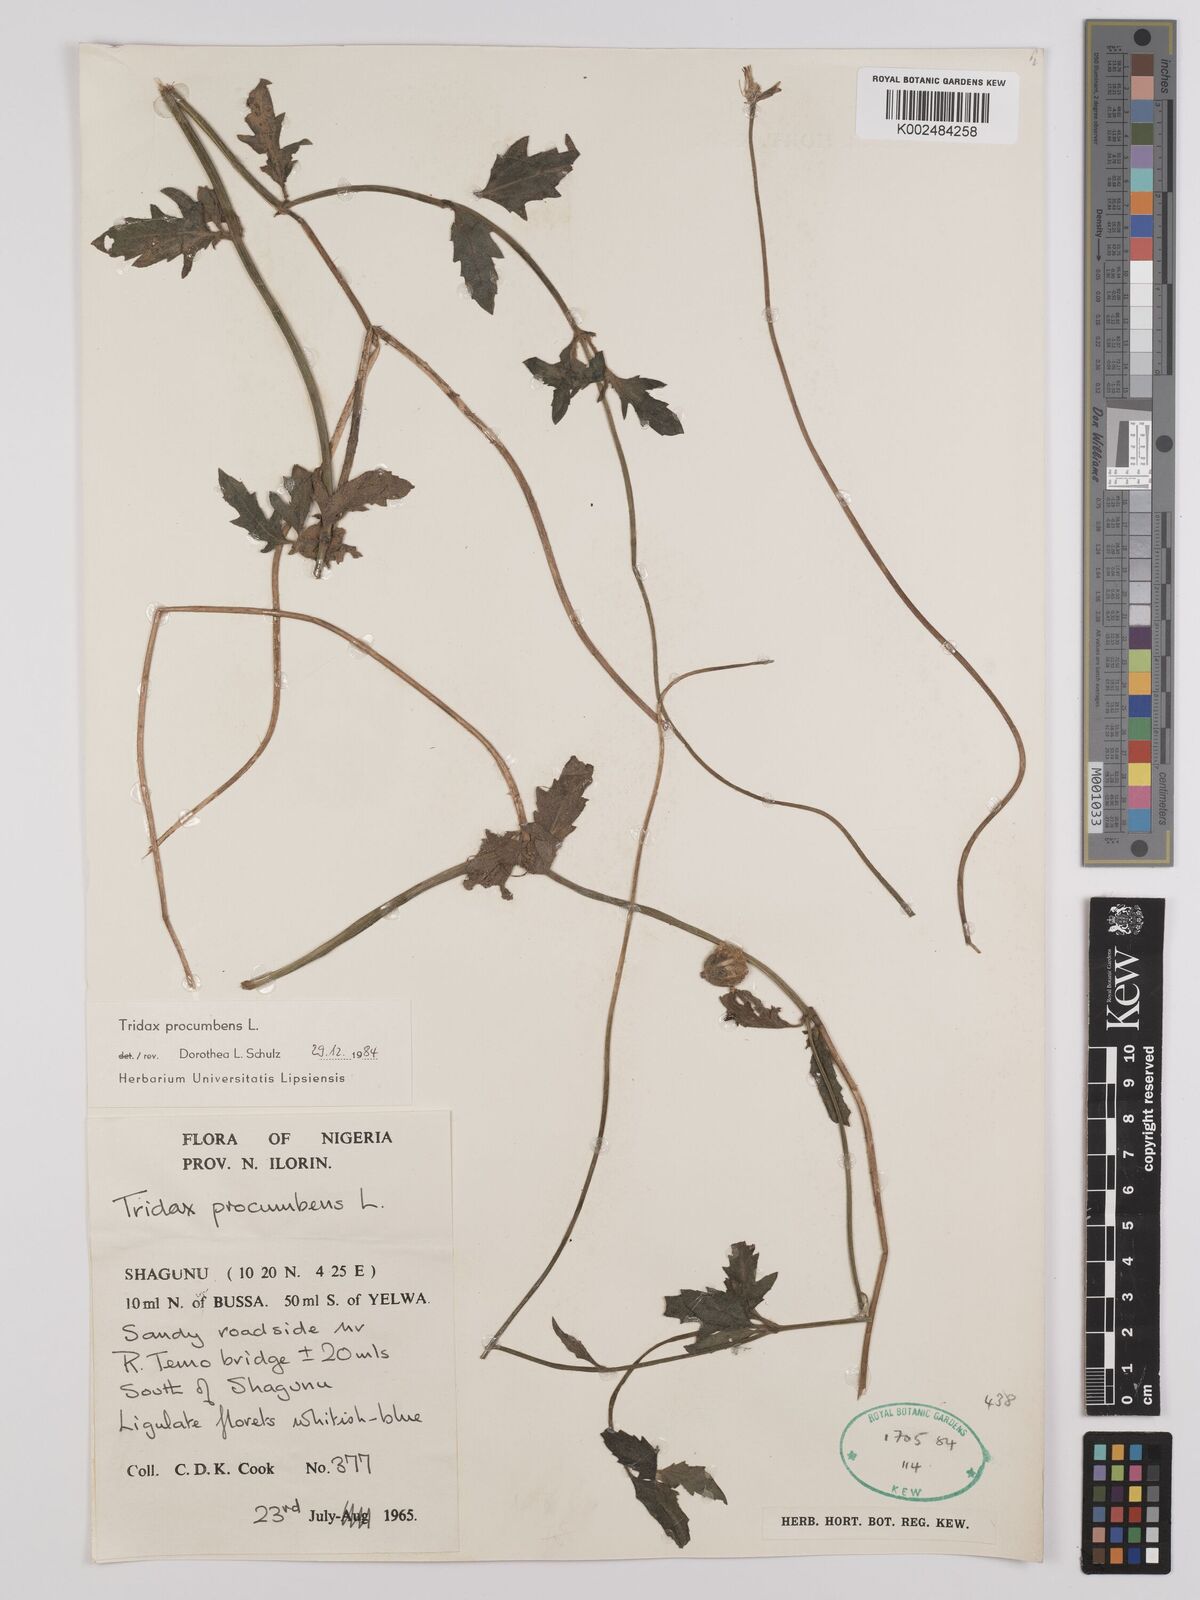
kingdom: Plantae
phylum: Tracheophyta
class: Magnoliopsida
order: Asterales
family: Asteraceae
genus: Tridax
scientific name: Tridax procumbens
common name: Coatbuttons
